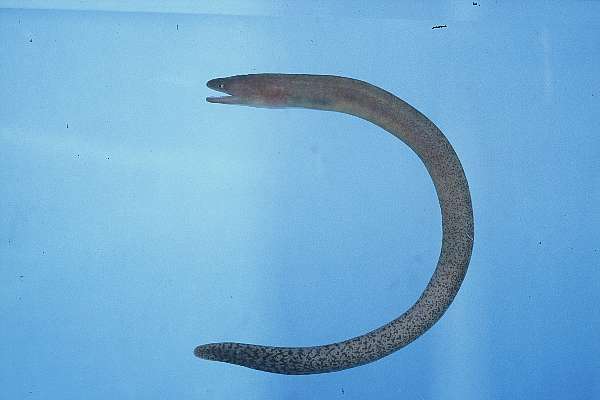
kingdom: Animalia
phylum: Chordata
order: Anguilliformes
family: Muraenidae
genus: Uropterygius
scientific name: Uropterygius fuscoguttatus
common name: Finless moray
